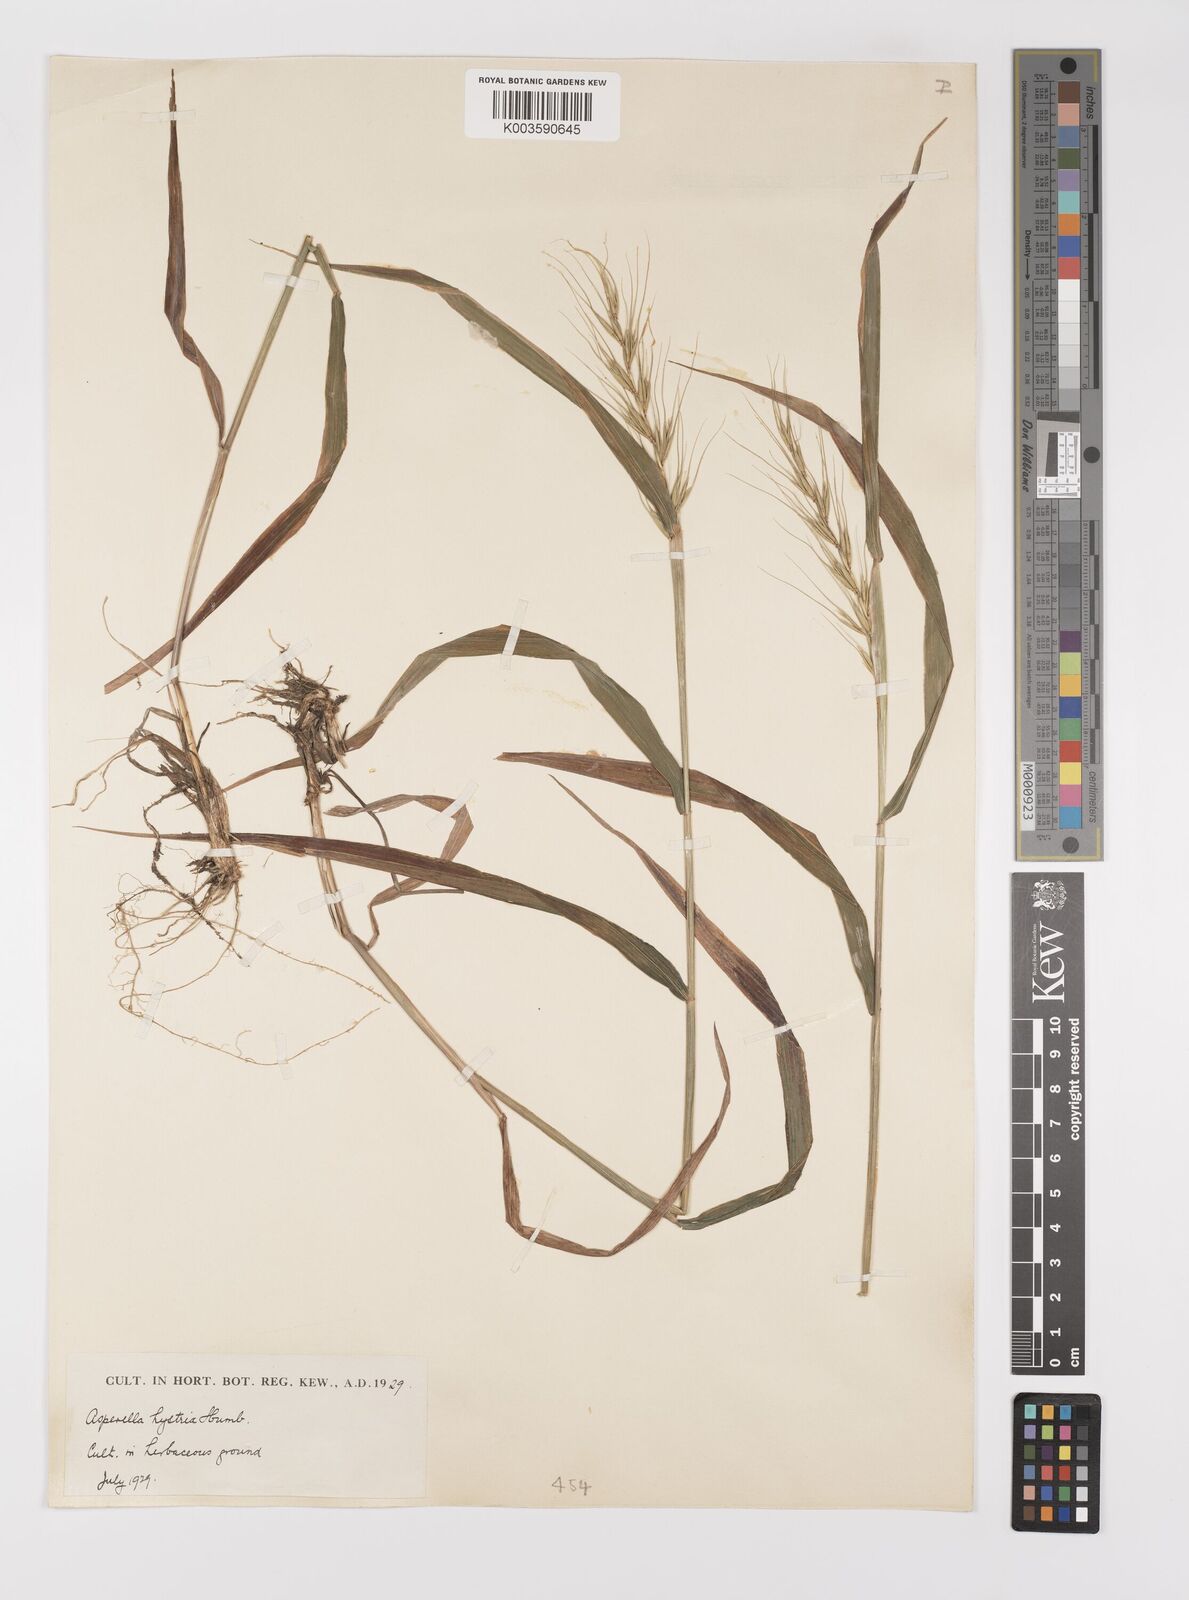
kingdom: Plantae
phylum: Tracheophyta
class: Liliopsida
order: Poales
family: Poaceae
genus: Elymus
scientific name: Elymus hystrix
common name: Bottlebrush grass
